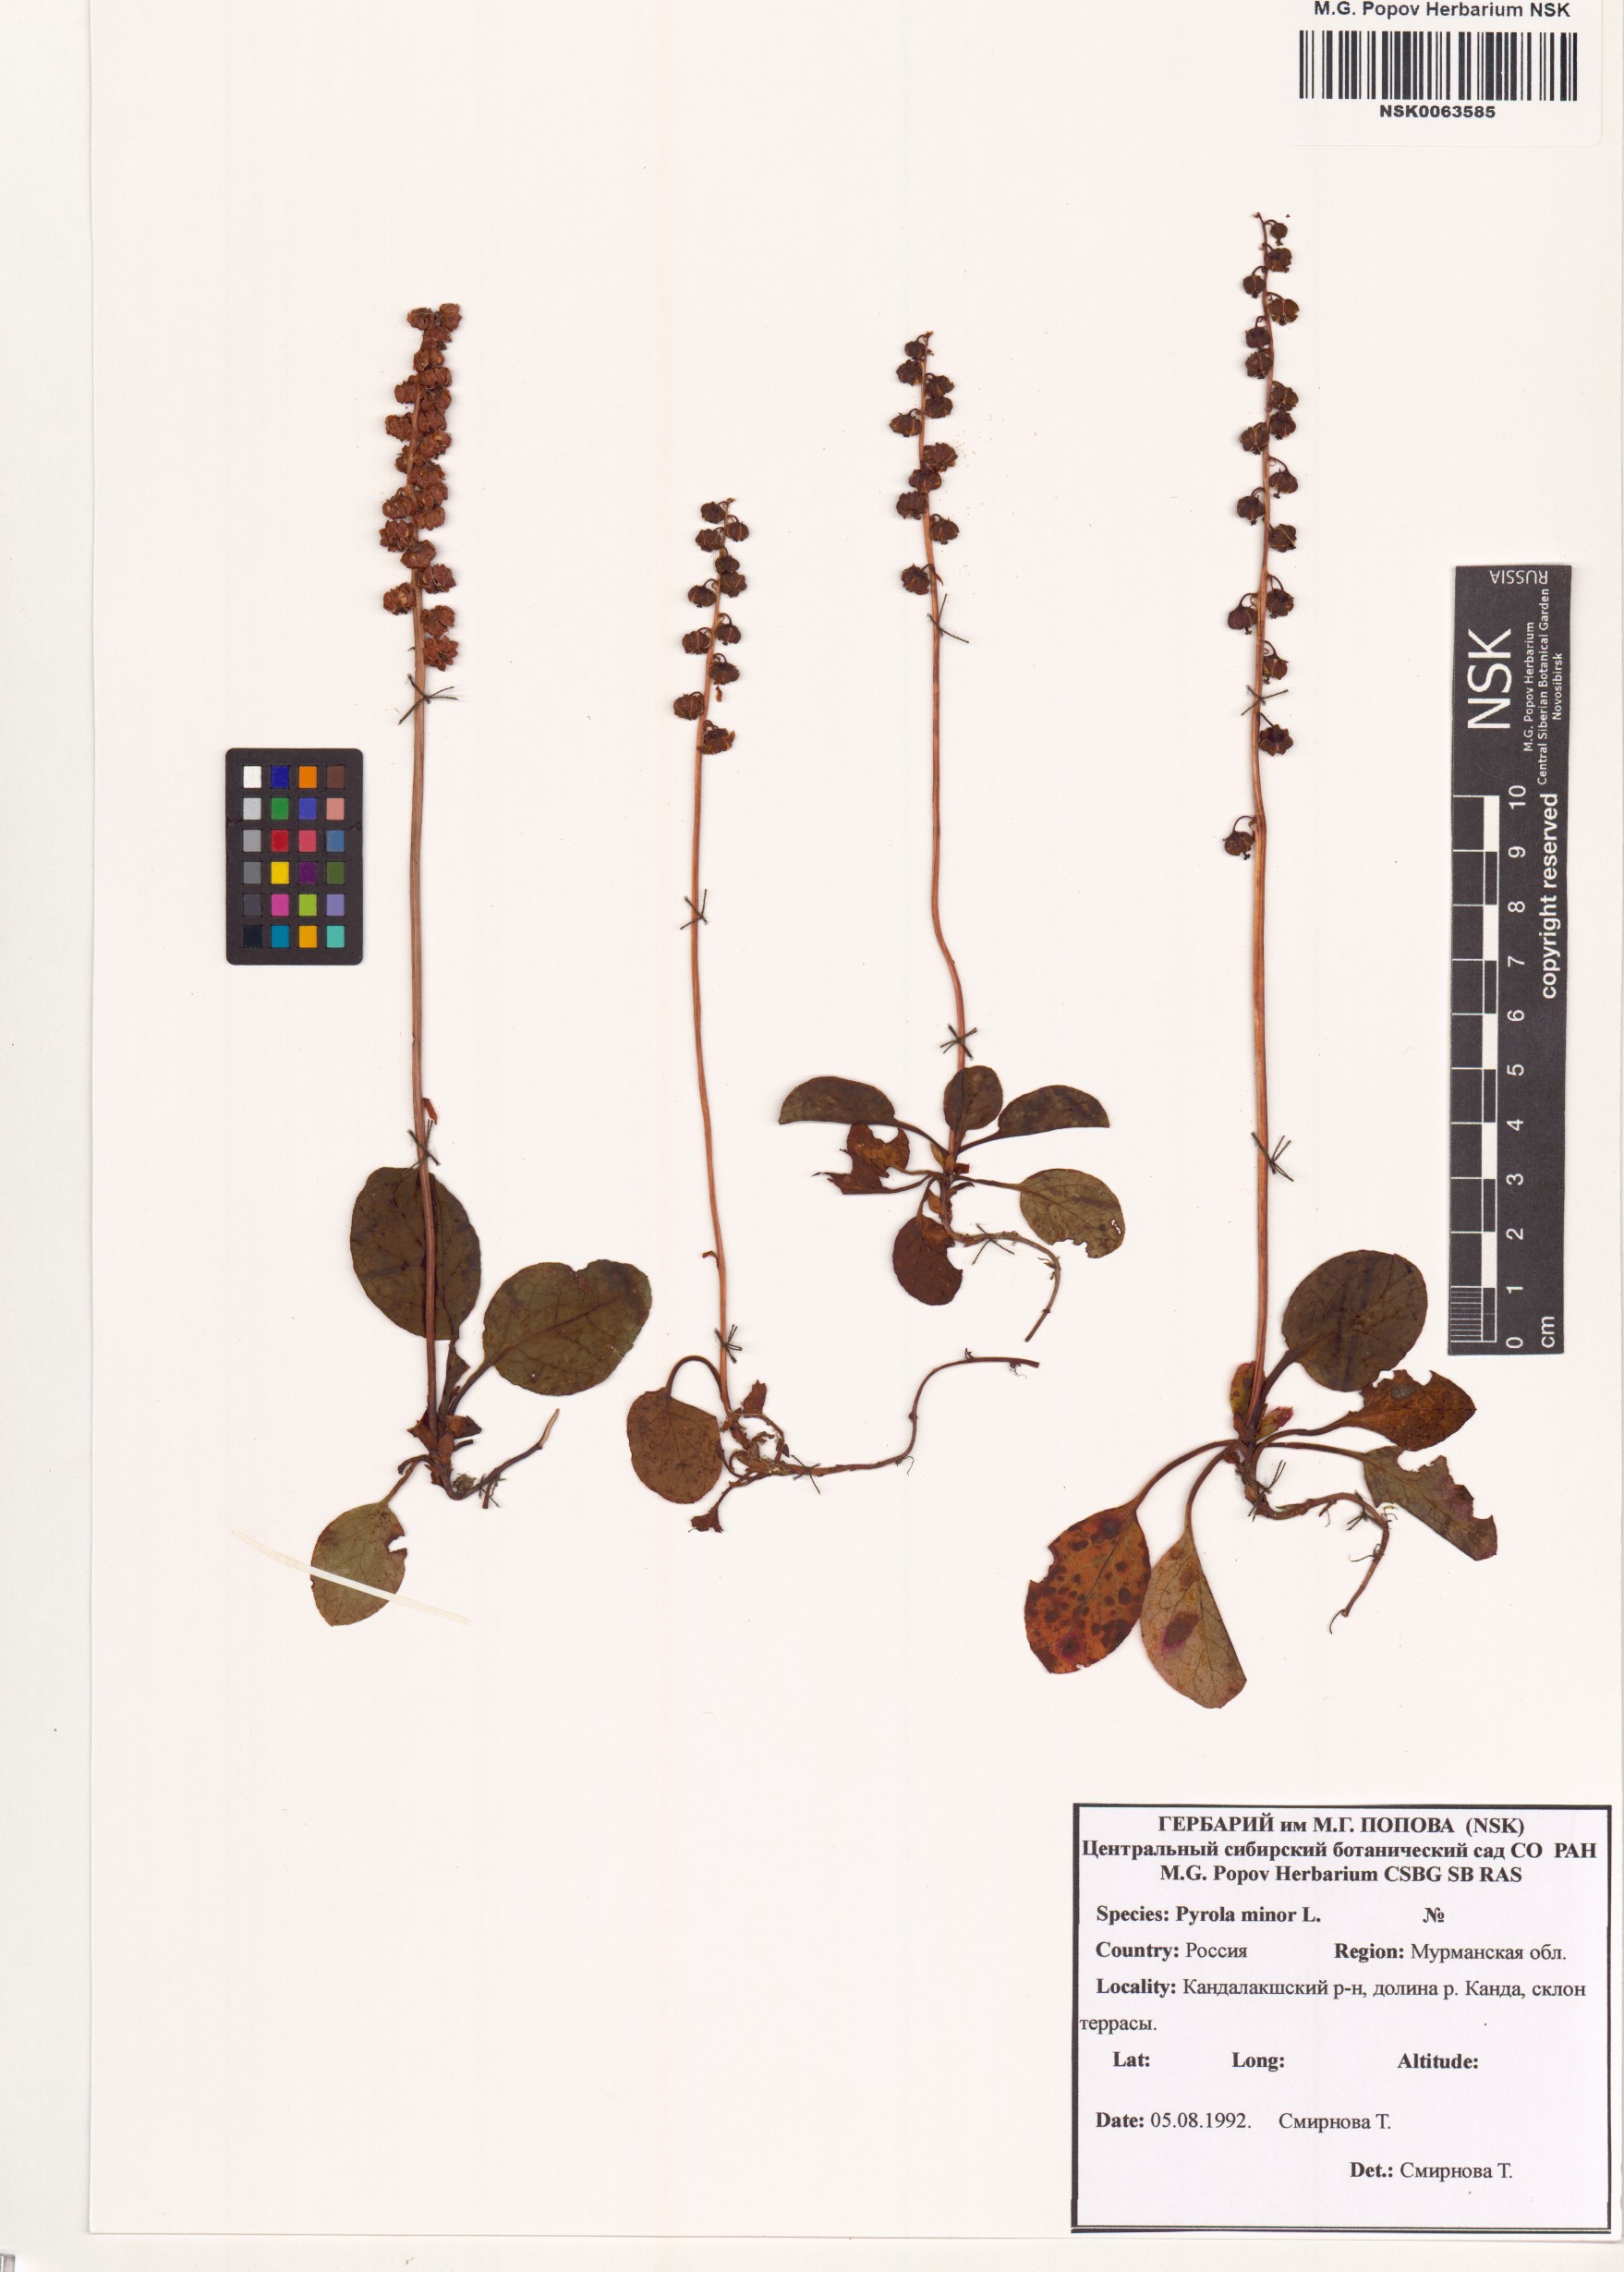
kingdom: Plantae
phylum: Tracheophyta
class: Magnoliopsida
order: Ericales
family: Ericaceae
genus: Pyrola
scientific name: Pyrola minor
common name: Common wintergreen
